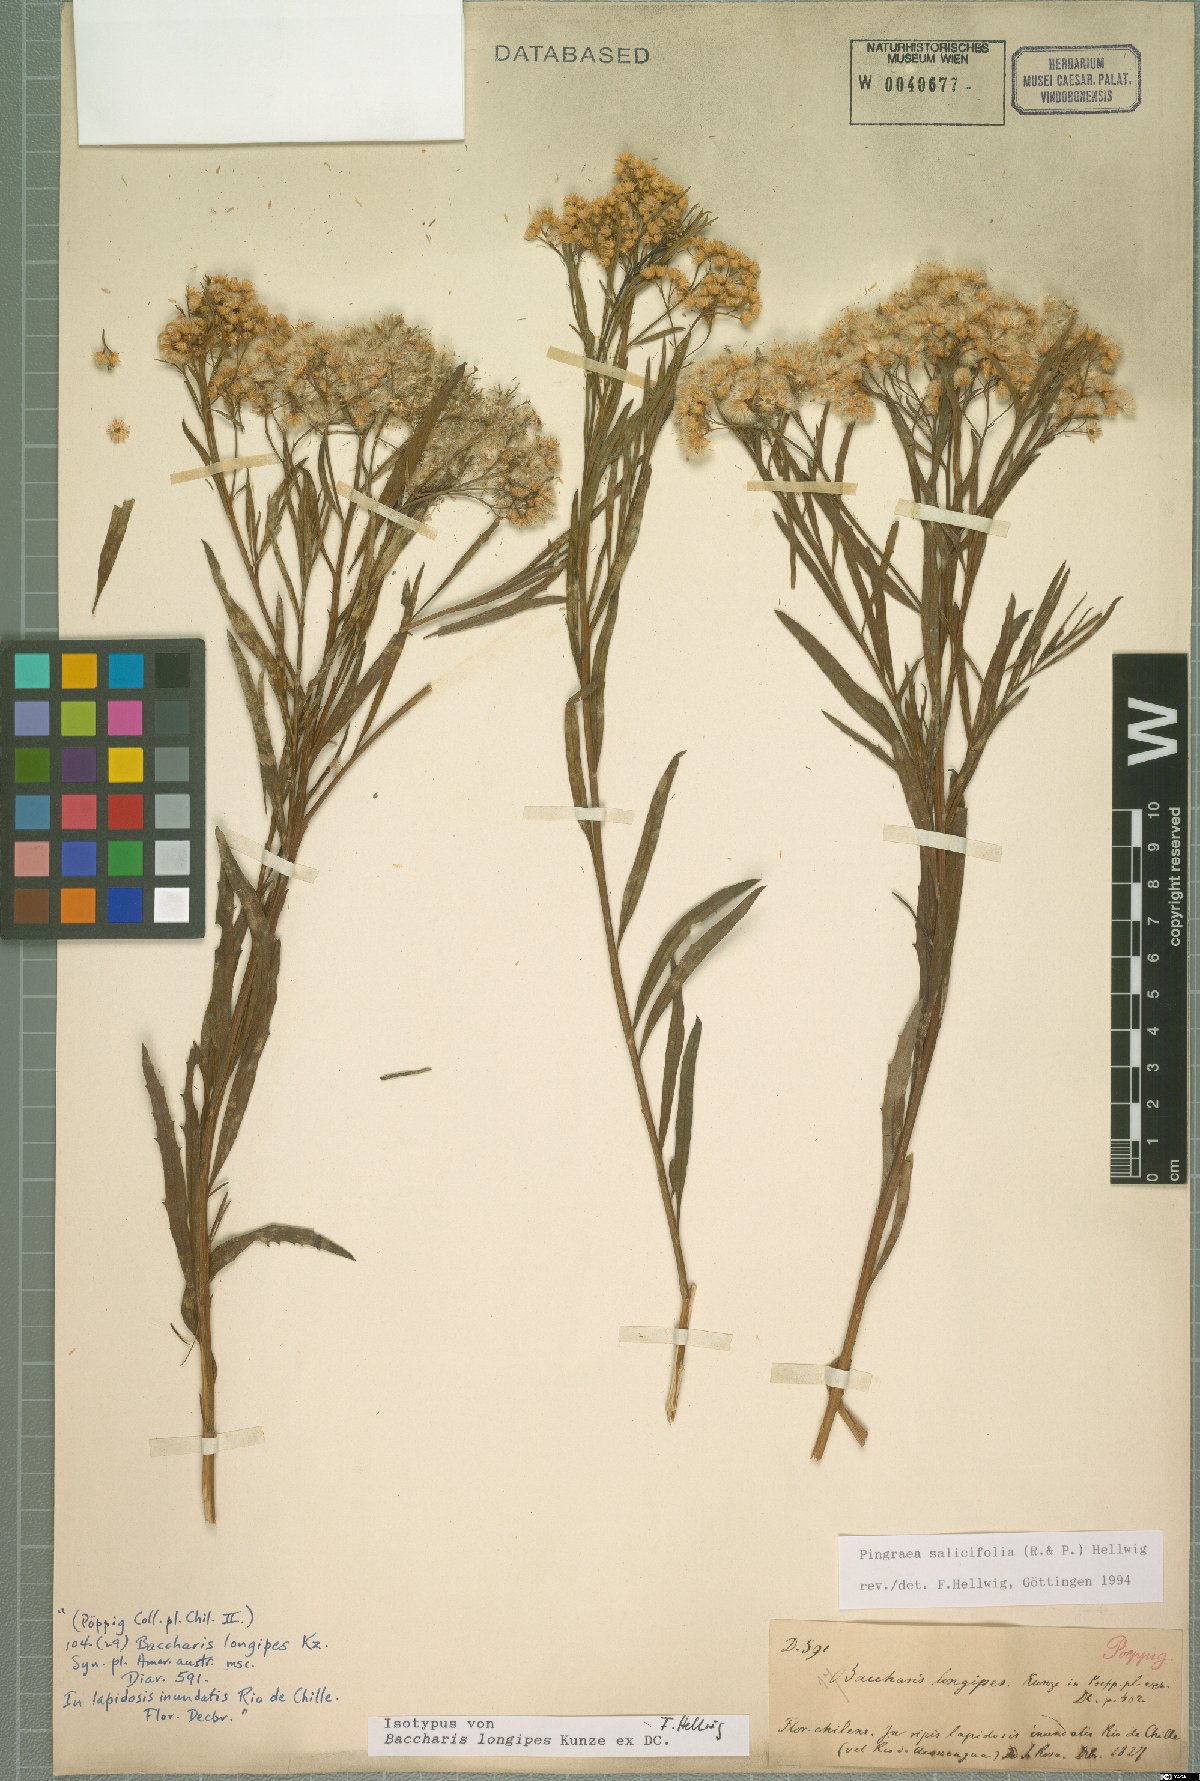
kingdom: Plantae
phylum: Tracheophyta
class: Magnoliopsida
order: Asterales
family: Asteraceae
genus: Baccharis
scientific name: Baccharis salicifolia
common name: Sticky baccharis
